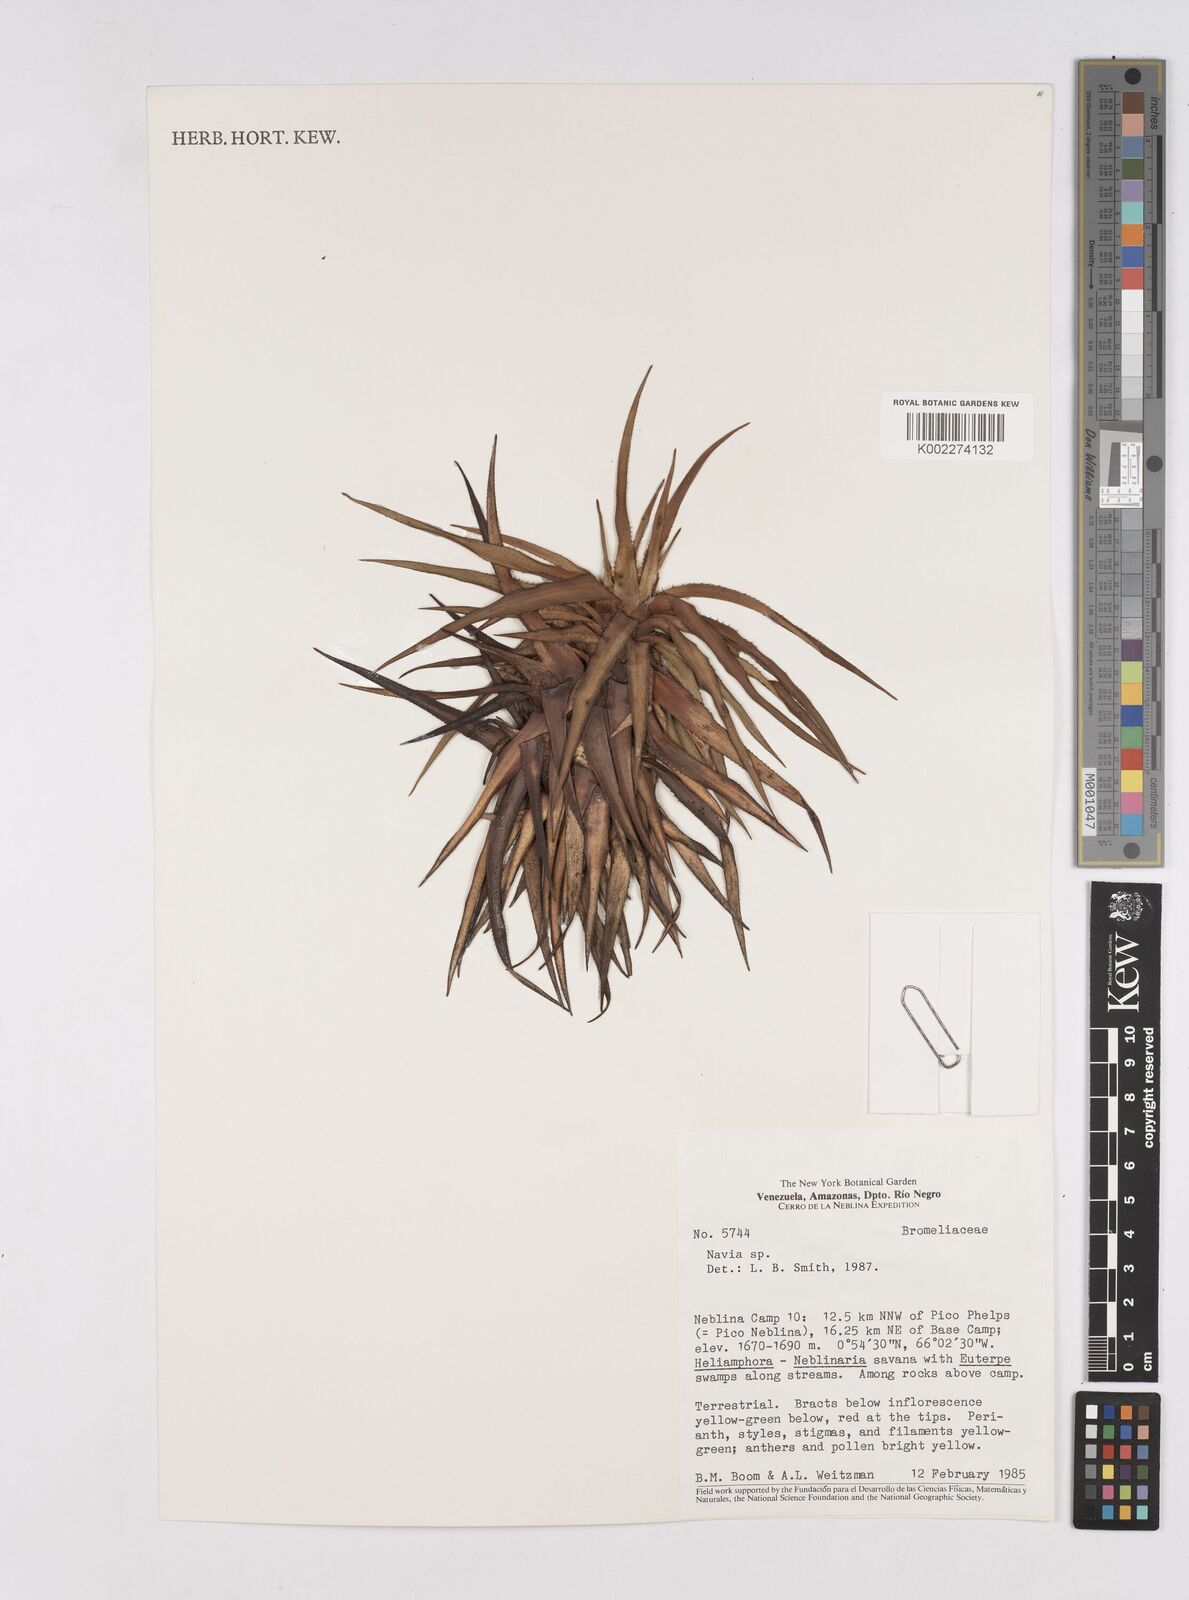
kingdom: Plantae
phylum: Tracheophyta
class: Liliopsida
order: Poales
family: Bromeliaceae
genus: Navia
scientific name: Navia
